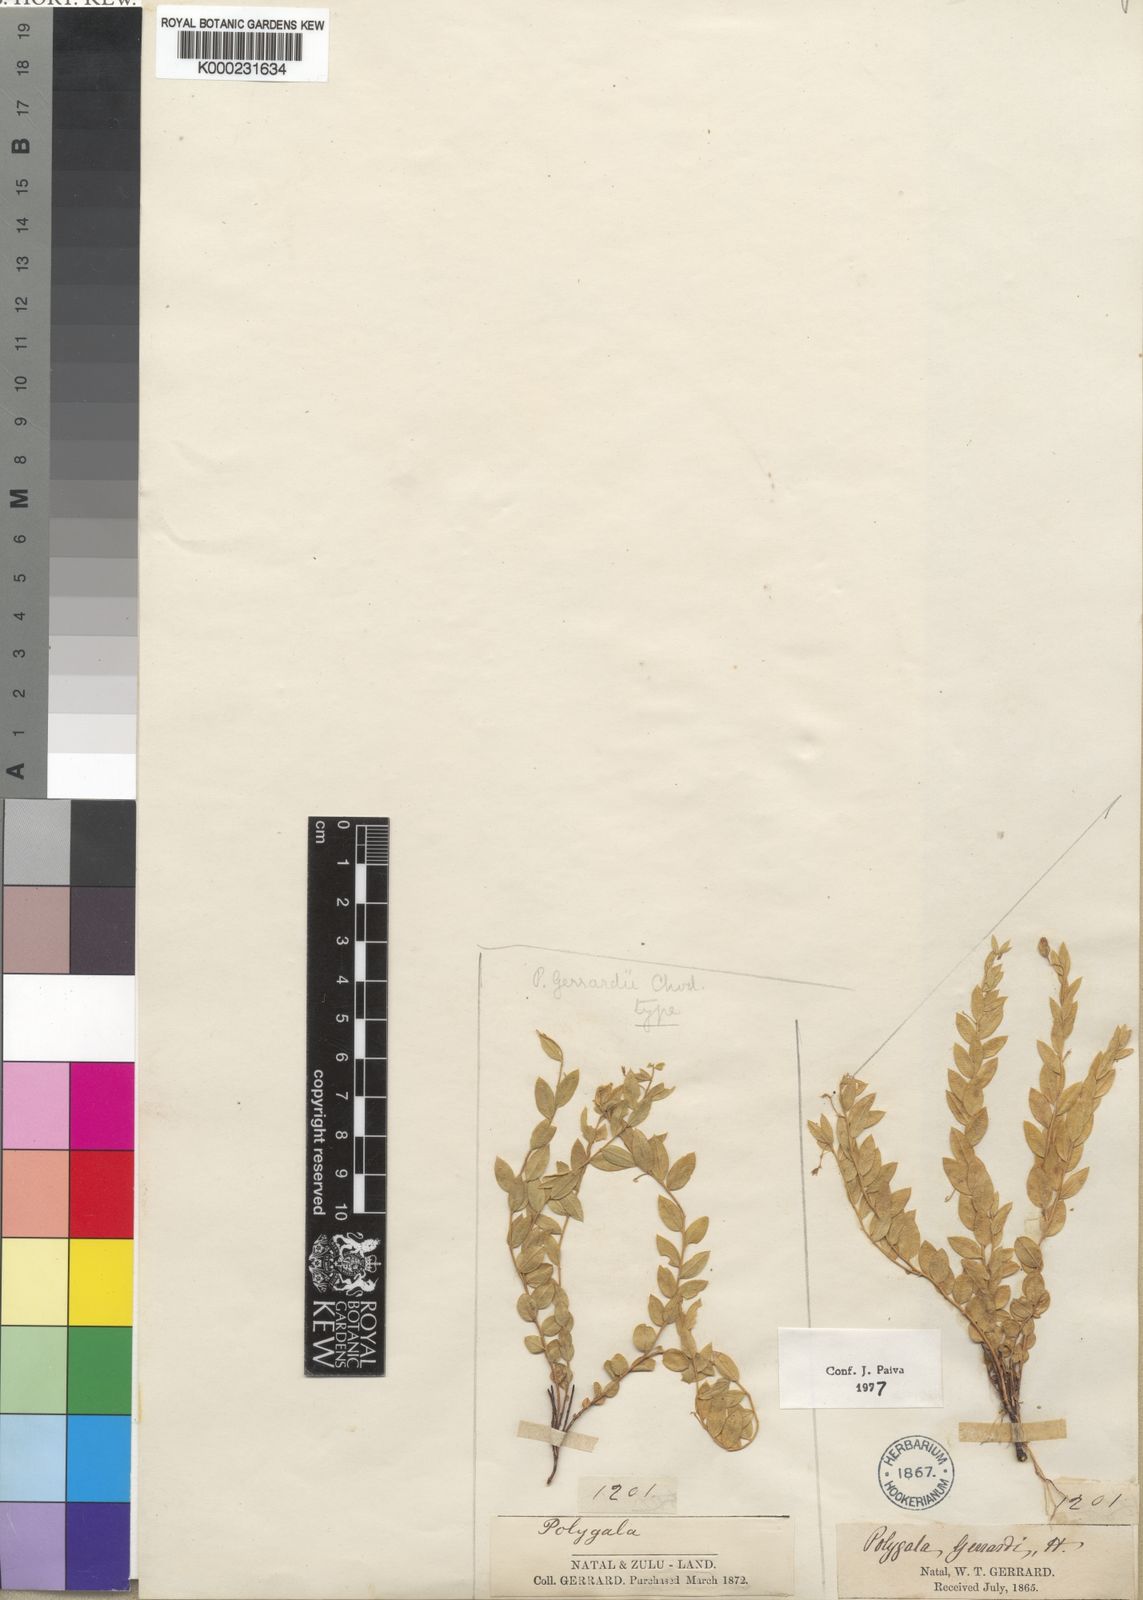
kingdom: Plantae
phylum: Tracheophyta
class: Magnoliopsida
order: Fabales
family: Polygalaceae
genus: Polygala
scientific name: Polygala gerrardii
